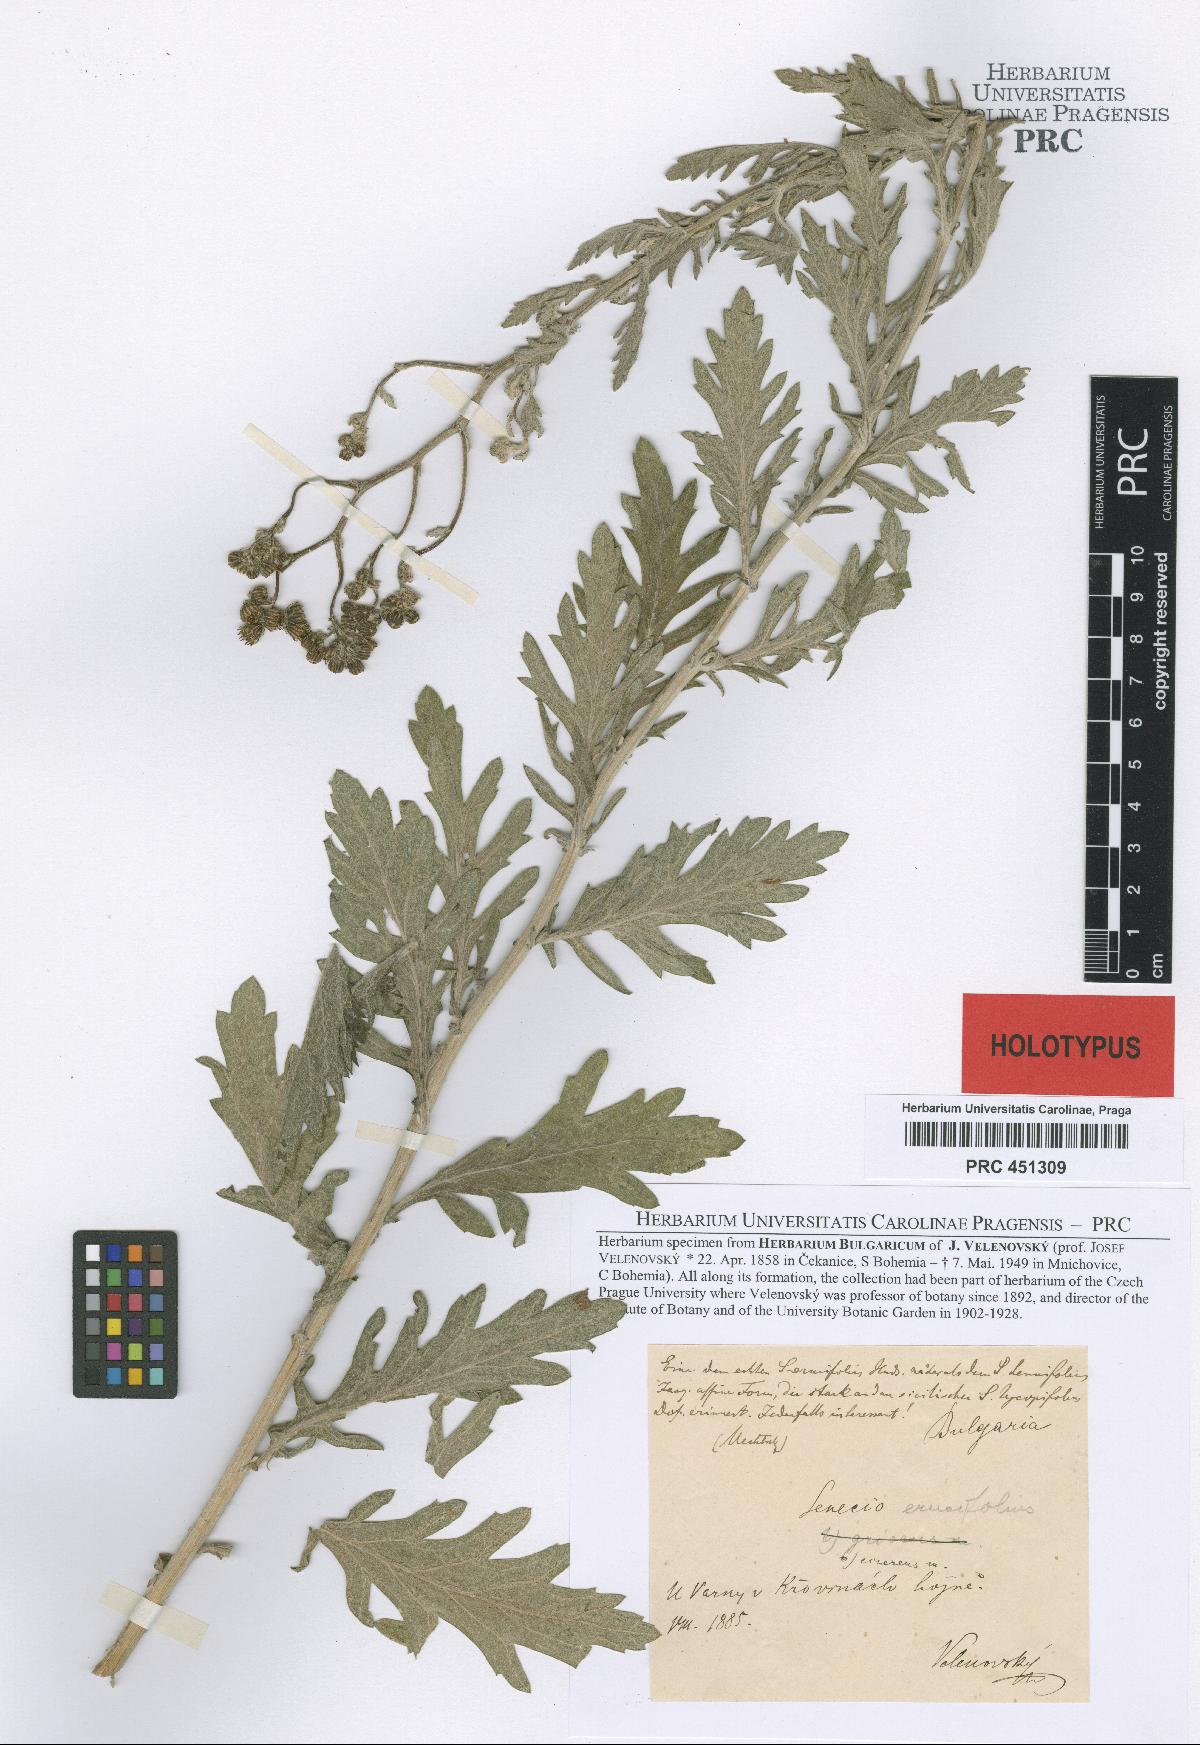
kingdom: Plantae
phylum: Tracheophyta
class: Magnoliopsida
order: Asterales
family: Asteraceae
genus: Jacobaea
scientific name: Jacobaea erucifolia
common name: Hoary ragwort
